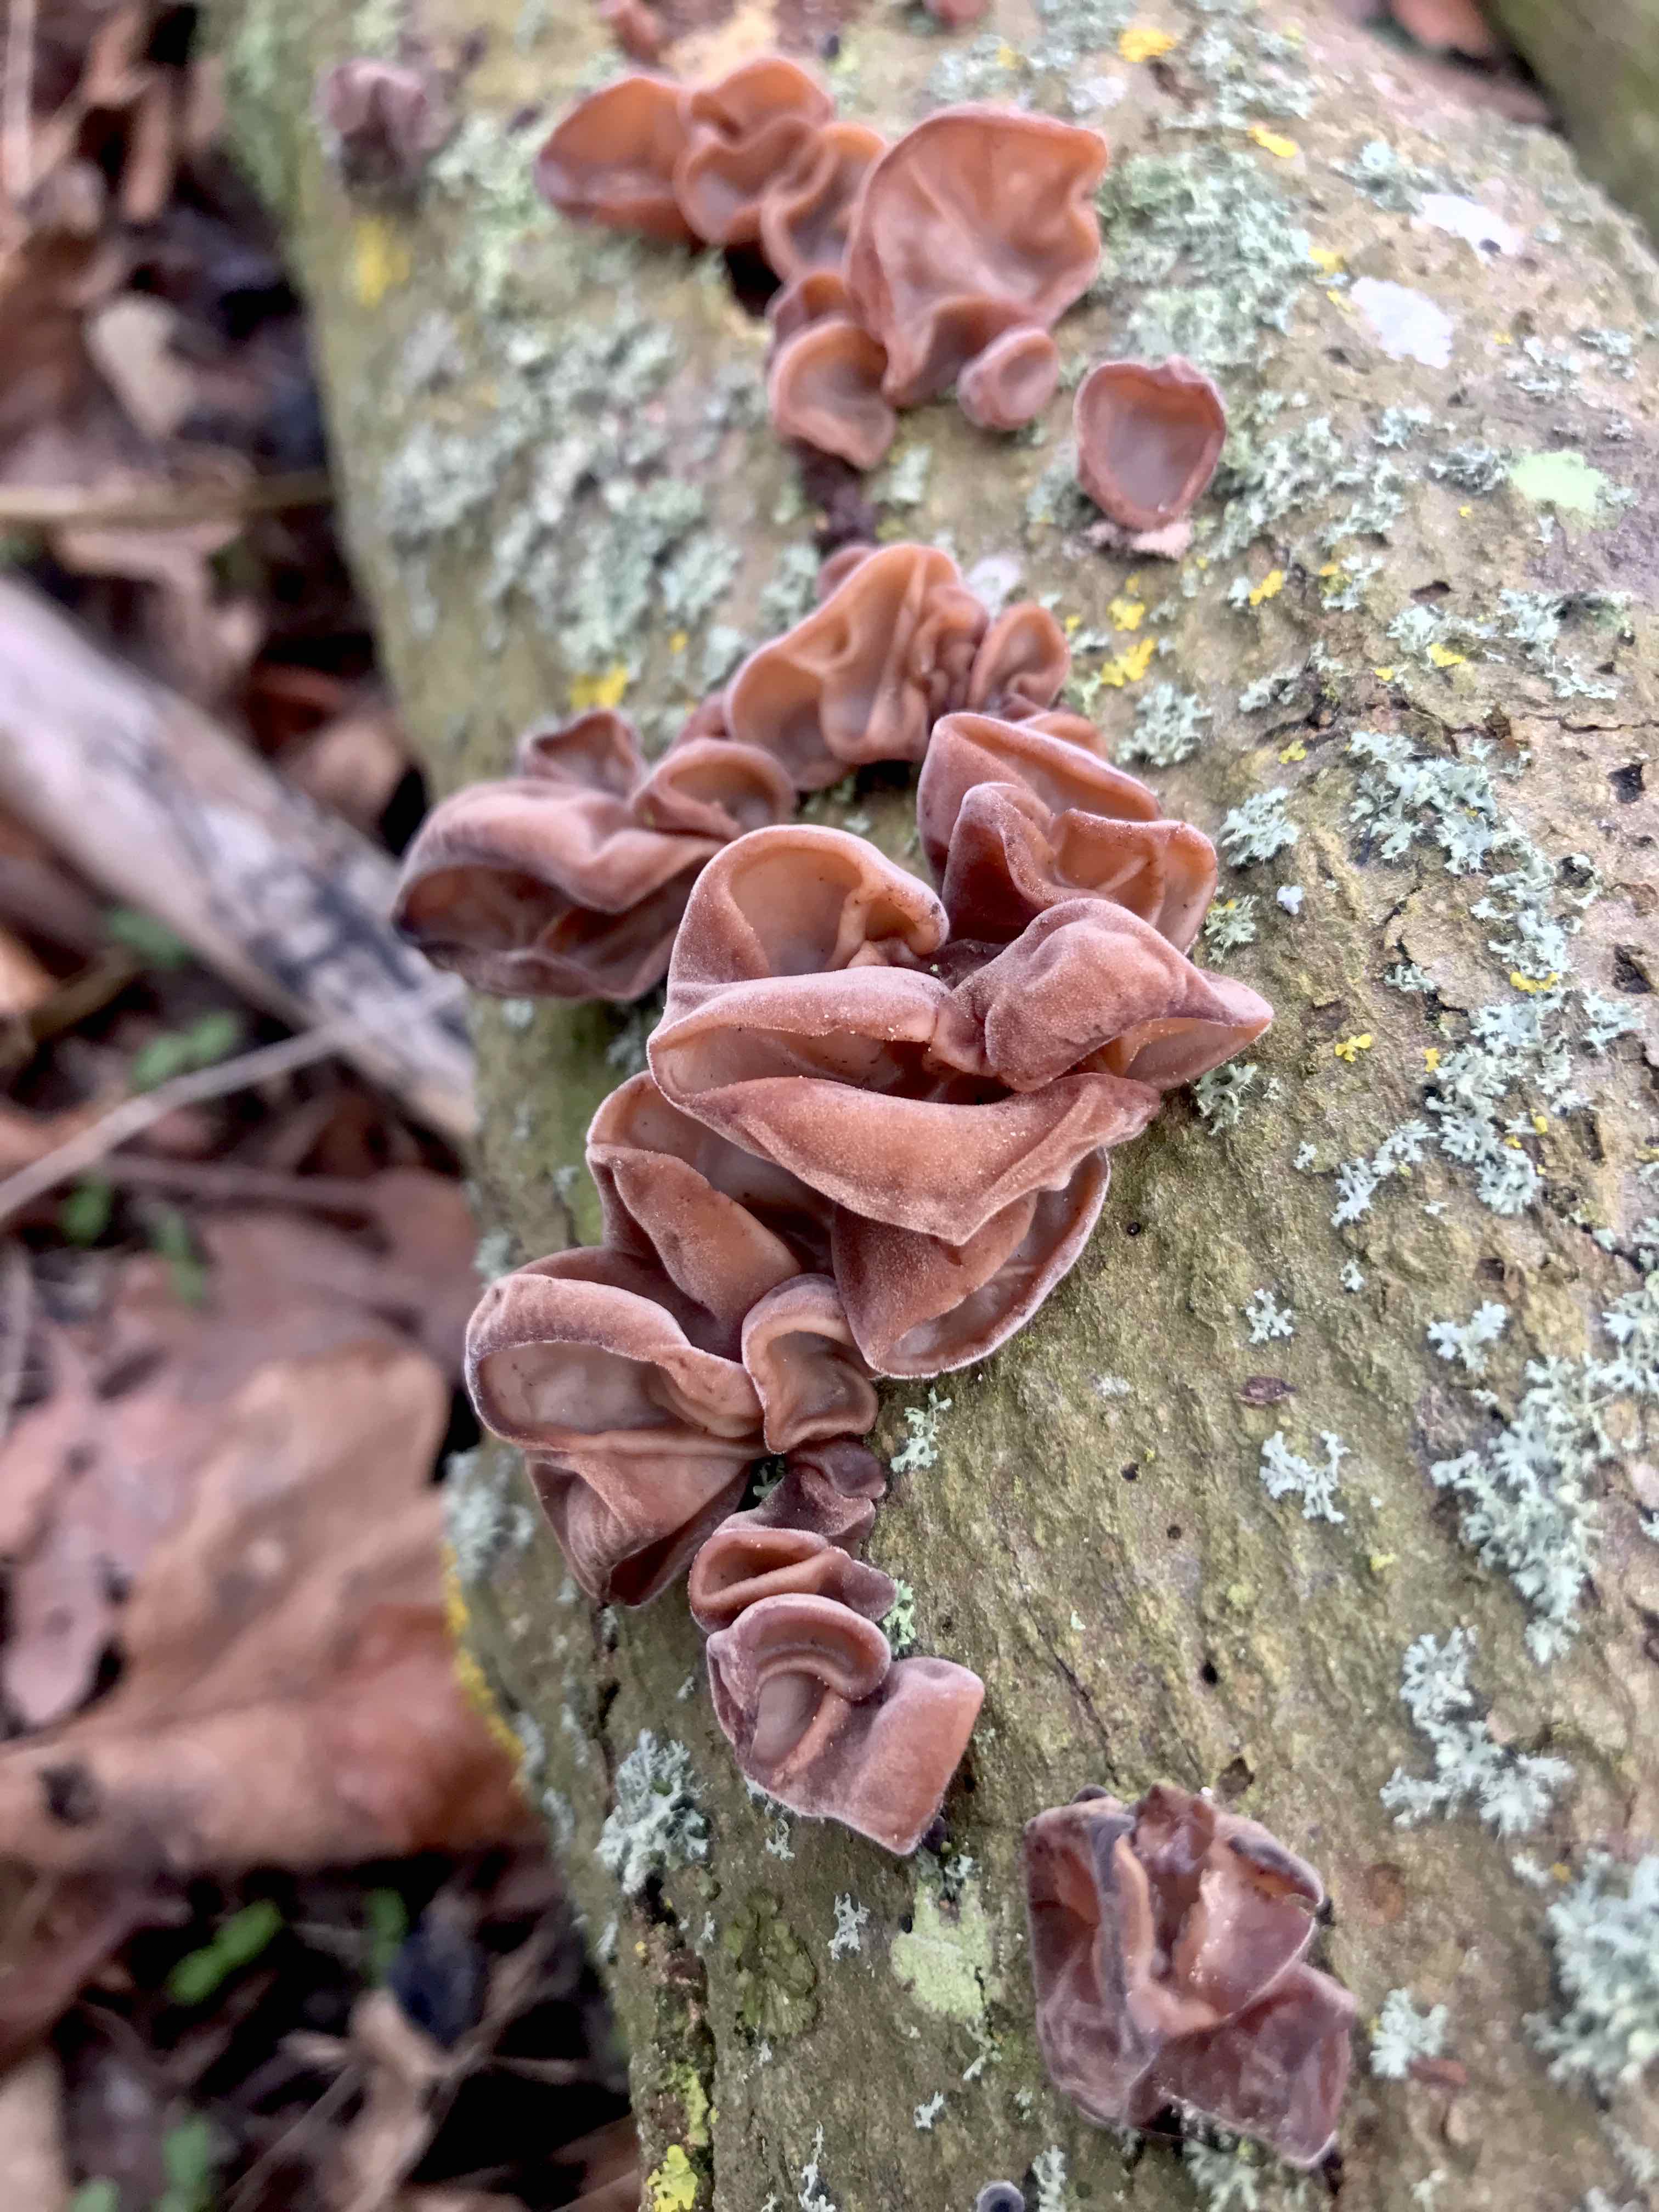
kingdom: Fungi
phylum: Basidiomycota
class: Agaricomycetes
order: Auriculariales
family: Auriculariaceae
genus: Auricularia
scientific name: Auricularia auricula-judae
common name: almindelig judasøre
